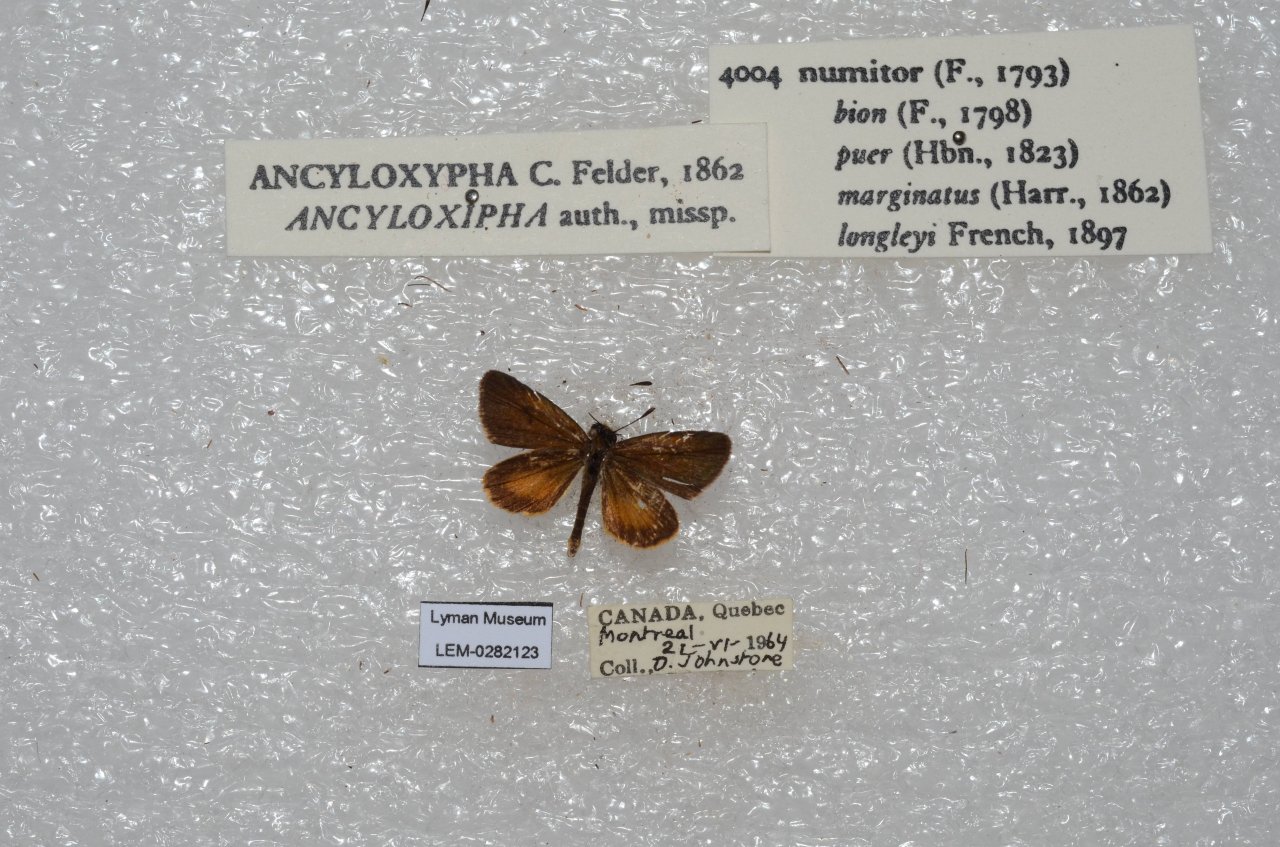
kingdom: Animalia
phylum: Arthropoda
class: Insecta
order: Lepidoptera
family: Hesperiidae
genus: Ancyloxypha
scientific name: Ancyloxypha numitor
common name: Least Skipper
